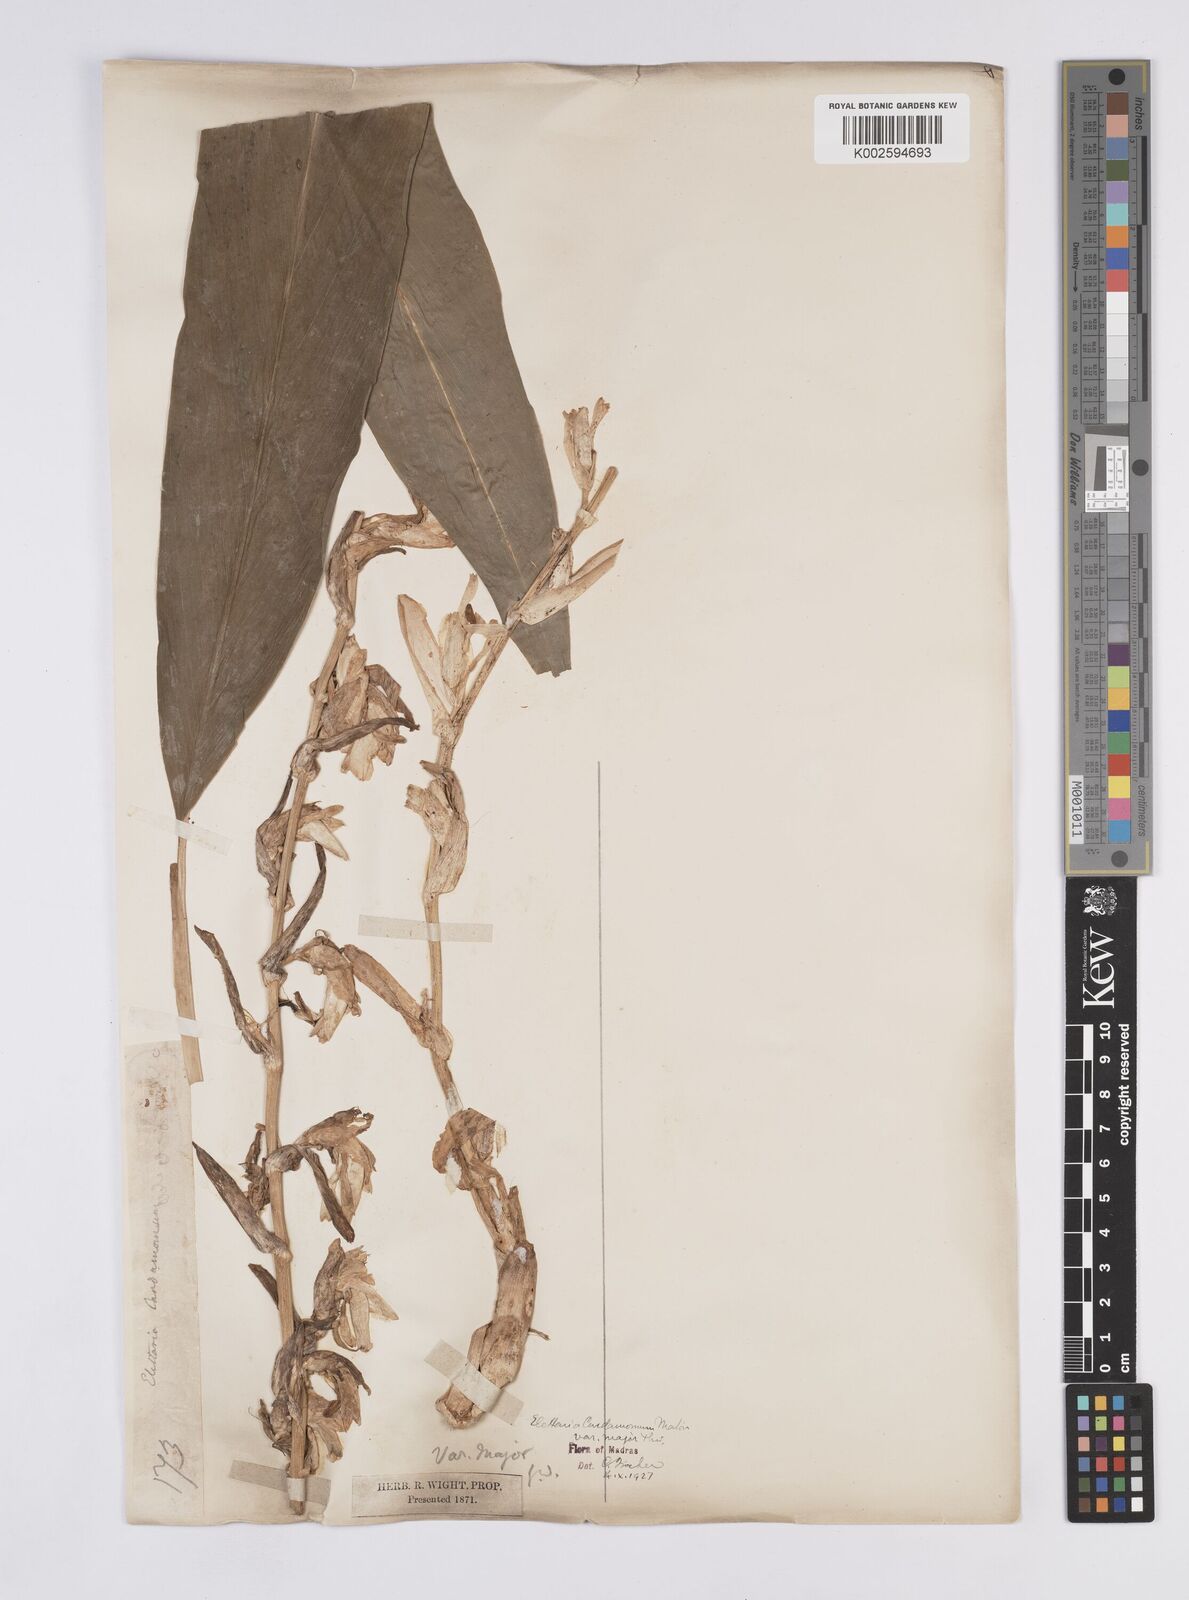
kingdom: Plantae
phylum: Tracheophyta
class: Liliopsida
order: Zingiberales
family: Zingiberaceae
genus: Elettaria
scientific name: Elettaria ensal
